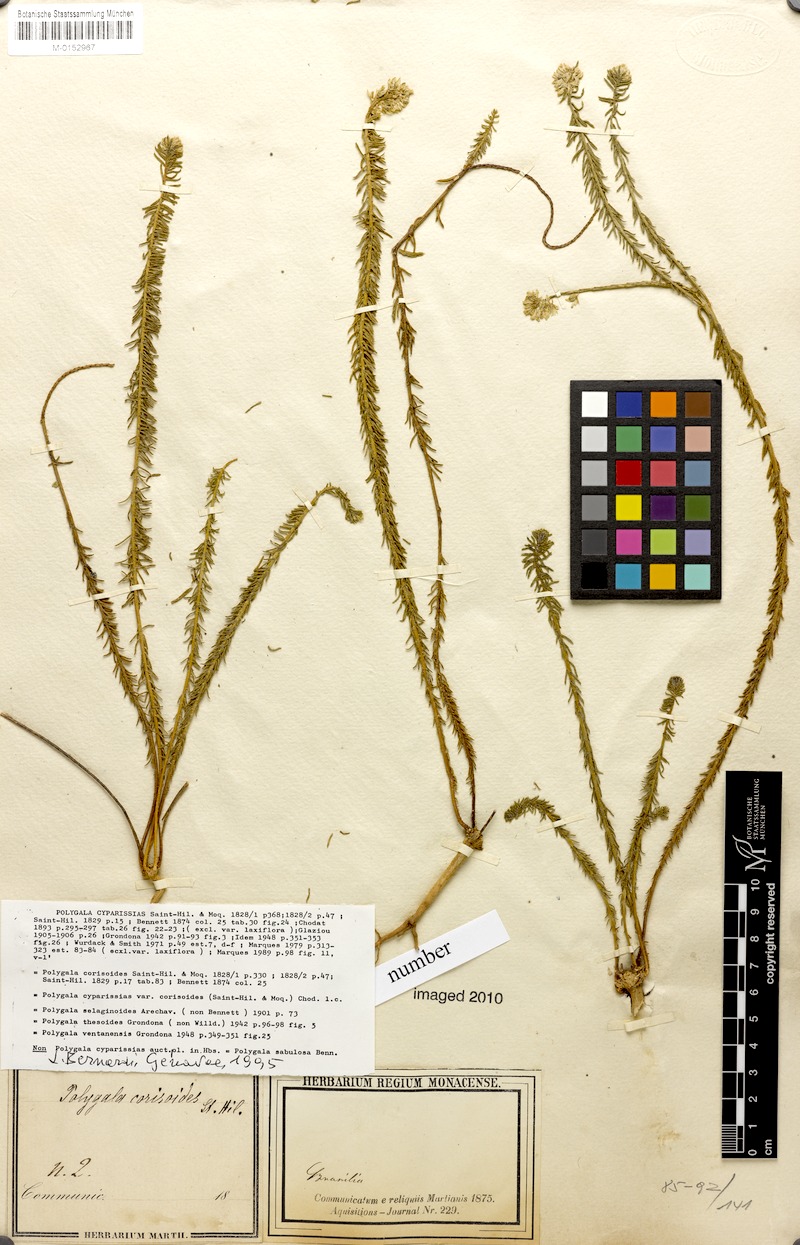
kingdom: Plantae
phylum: Tracheophyta
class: Magnoliopsida
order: Fabales
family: Polygalaceae
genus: Polygala
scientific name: Polygala cyparissias
